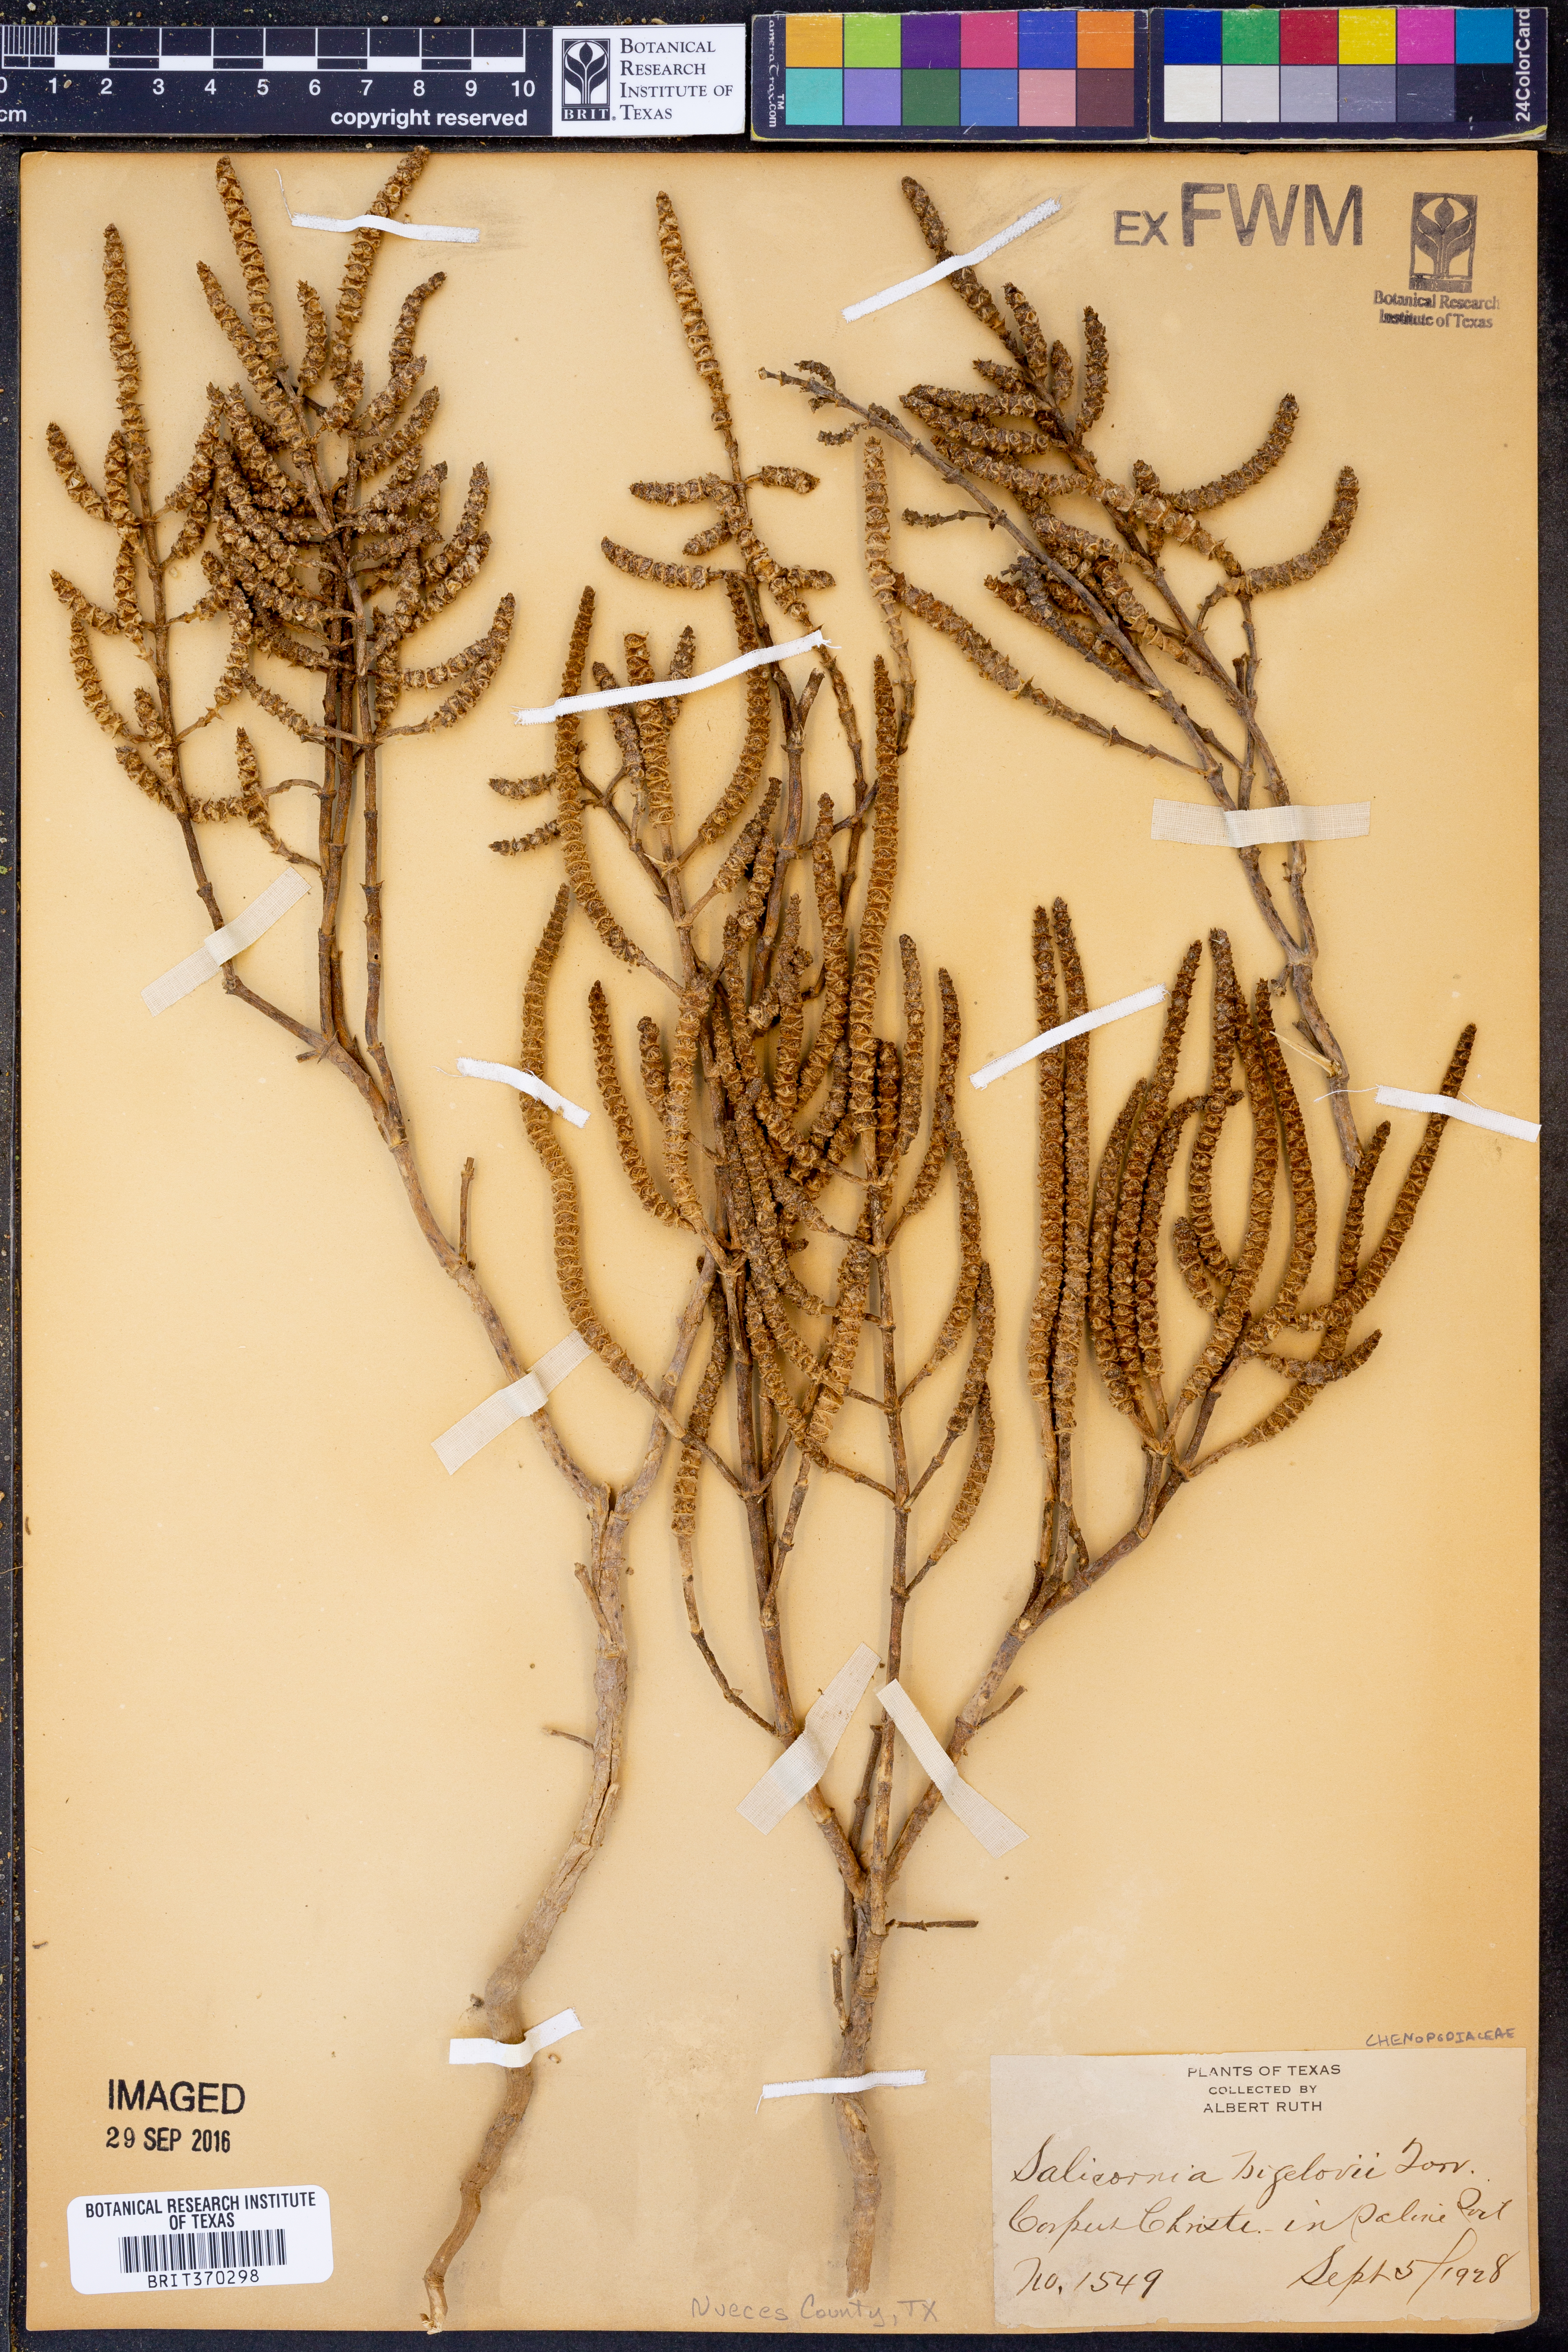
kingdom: Plantae
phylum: Tracheophyta
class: Magnoliopsida
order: Caryophyllales
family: Amaranthaceae
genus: Salicornia
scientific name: Salicornia bigelovii
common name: Dwarf glasswort
